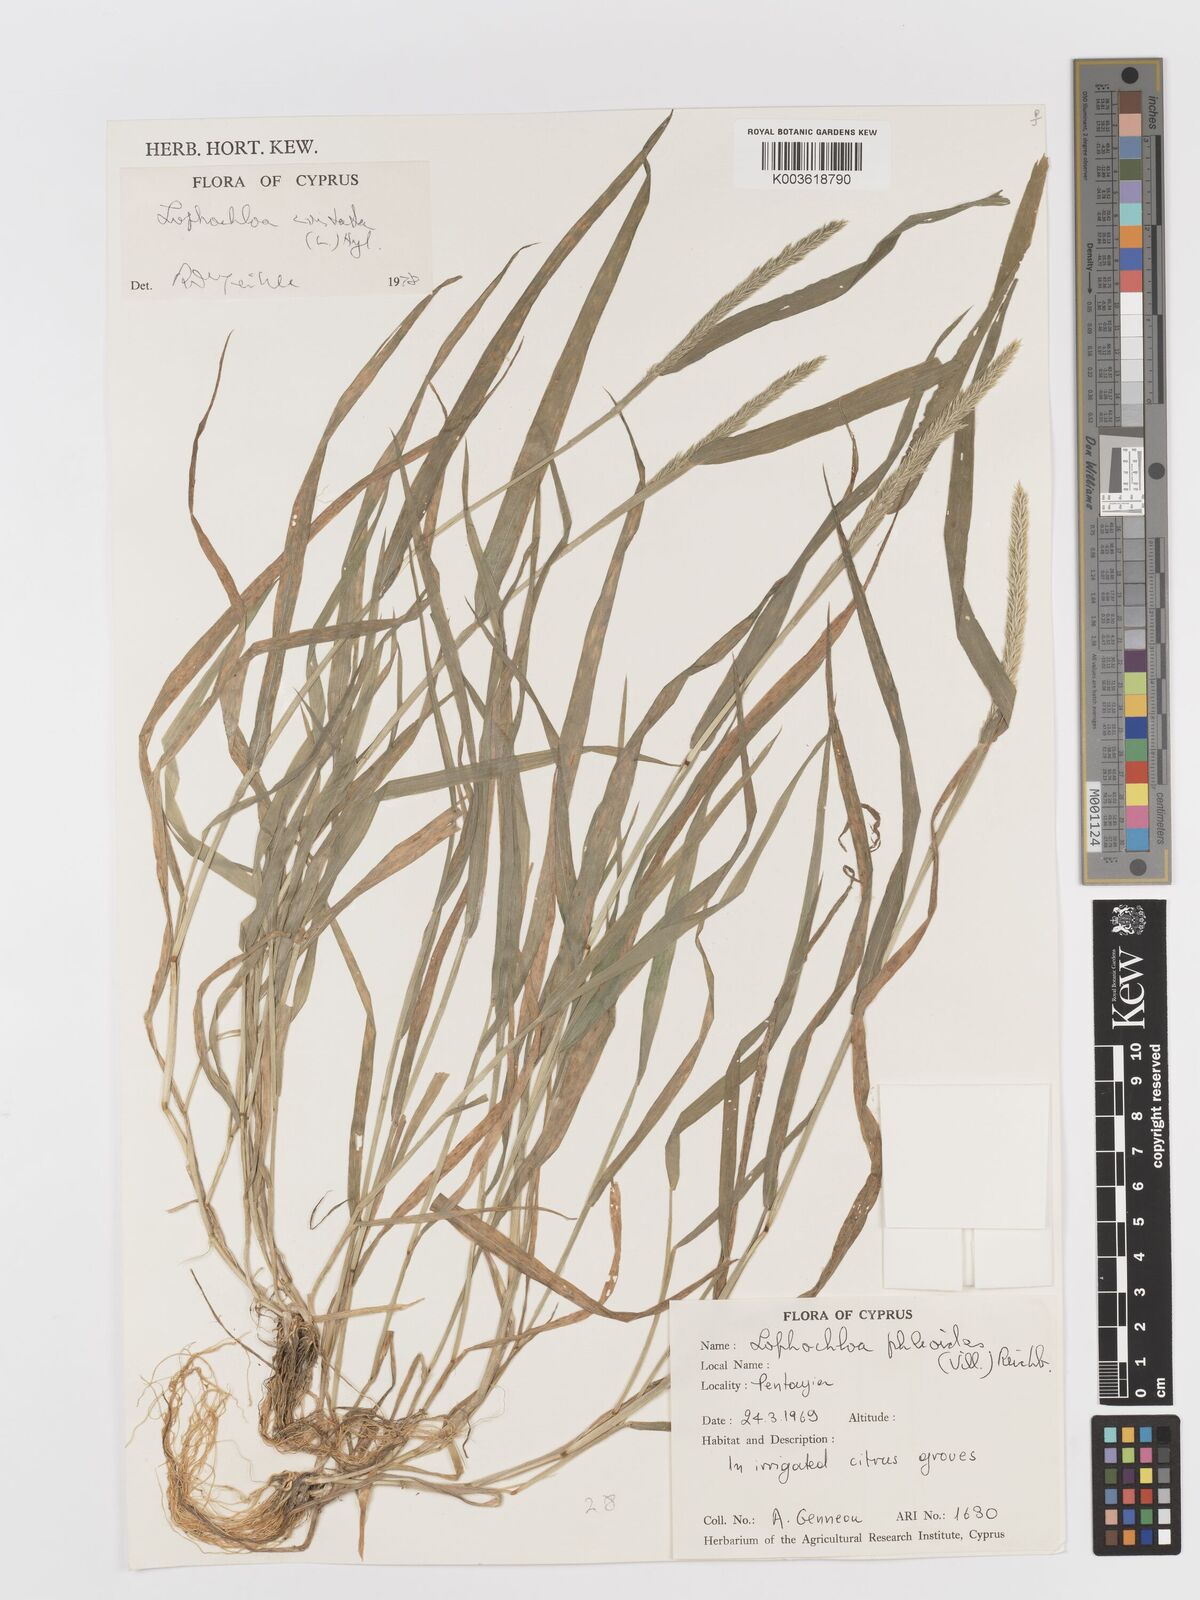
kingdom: Plantae
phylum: Tracheophyta
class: Liliopsida
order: Poales
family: Poaceae
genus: Rostraria
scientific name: Rostraria cristata
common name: Mediterranean hair-grass
